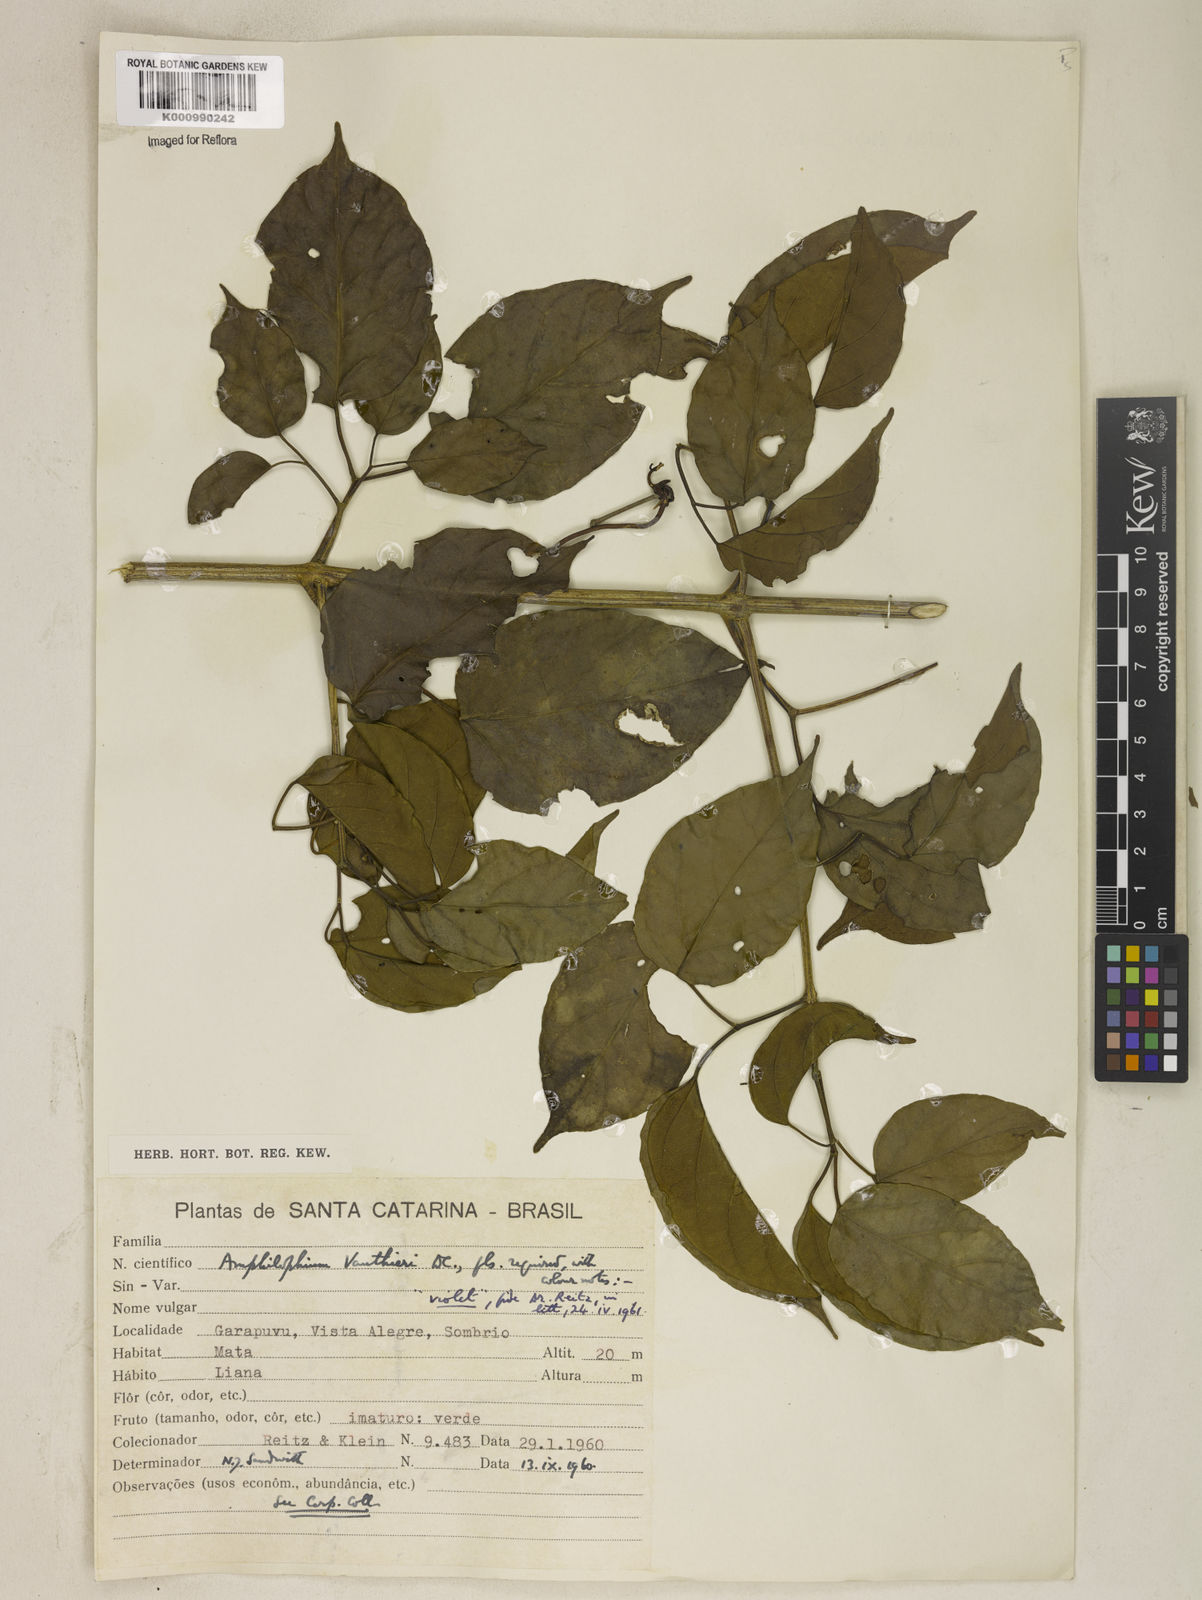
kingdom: Plantae
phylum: Tracheophyta
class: Magnoliopsida
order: Lamiales
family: Bignoniaceae
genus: Amphilophium
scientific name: Amphilophium paniculatum
